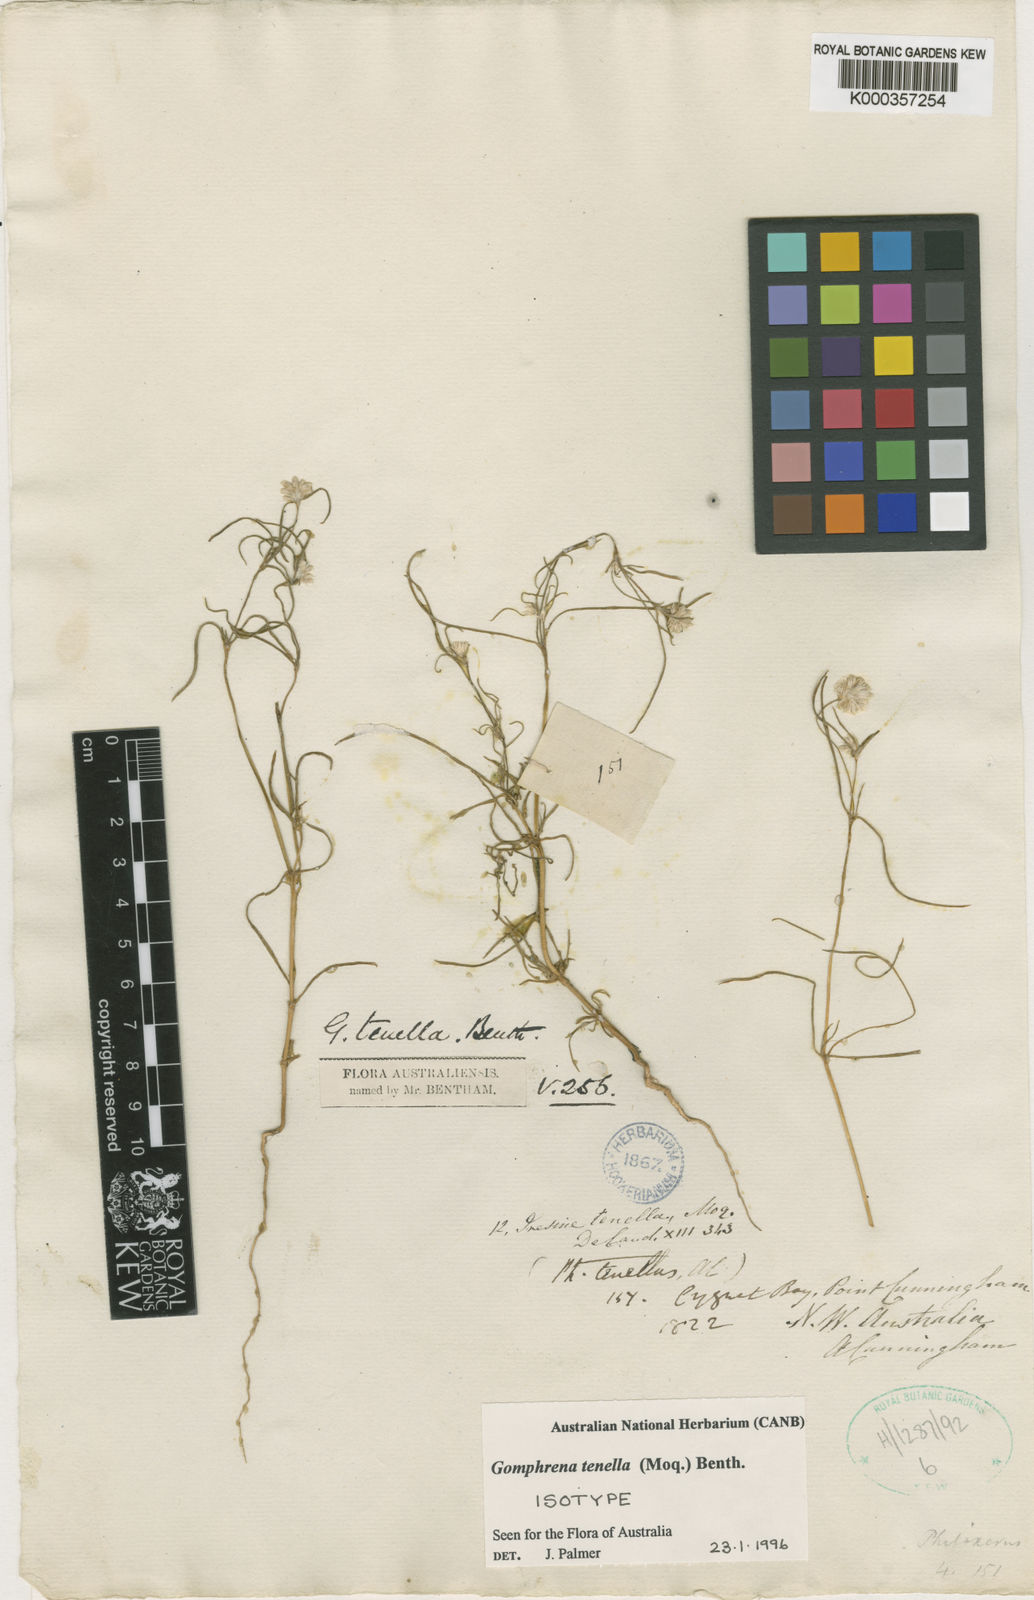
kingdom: Plantae
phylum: Tracheophyta
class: Magnoliopsida
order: Caryophyllales
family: Amaranthaceae
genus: Gomphrena
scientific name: Gomphrena tenella
